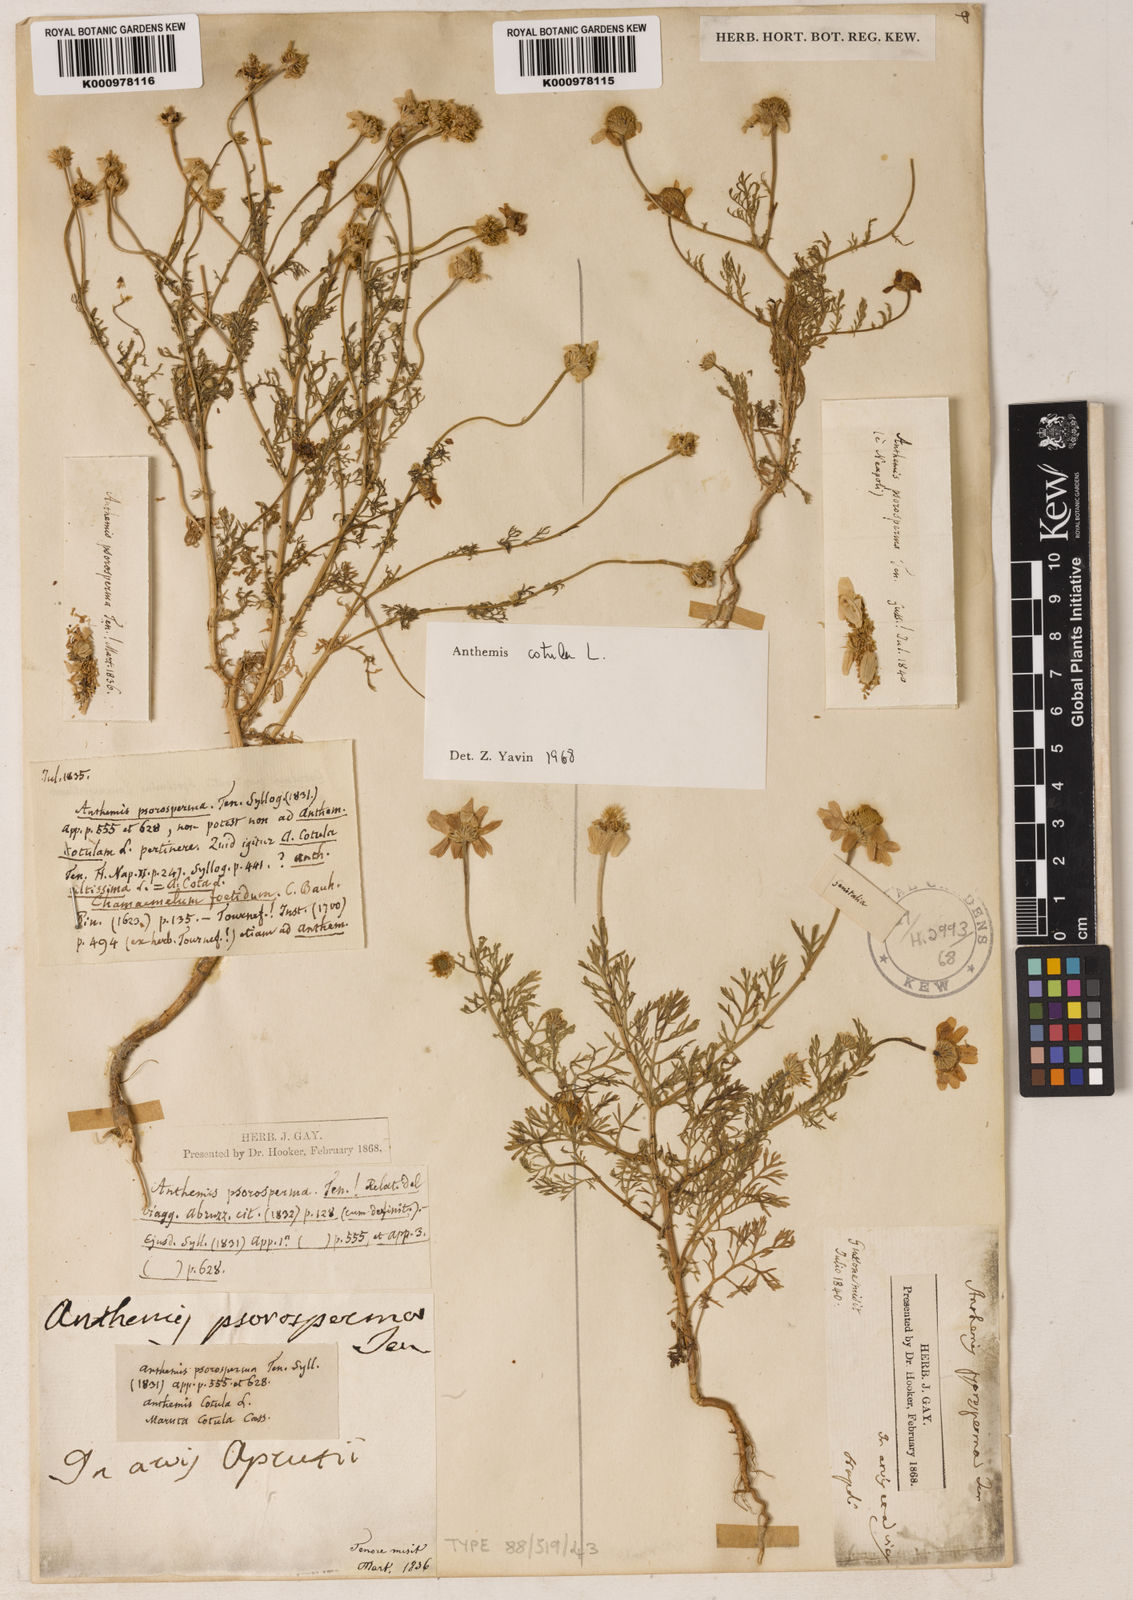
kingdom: Plantae
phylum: Tracheophyta
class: Magnoliopsida
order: Asterales
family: Asteraceae
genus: Anthemis
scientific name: Anthemis cotula
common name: Stinking chamomile
